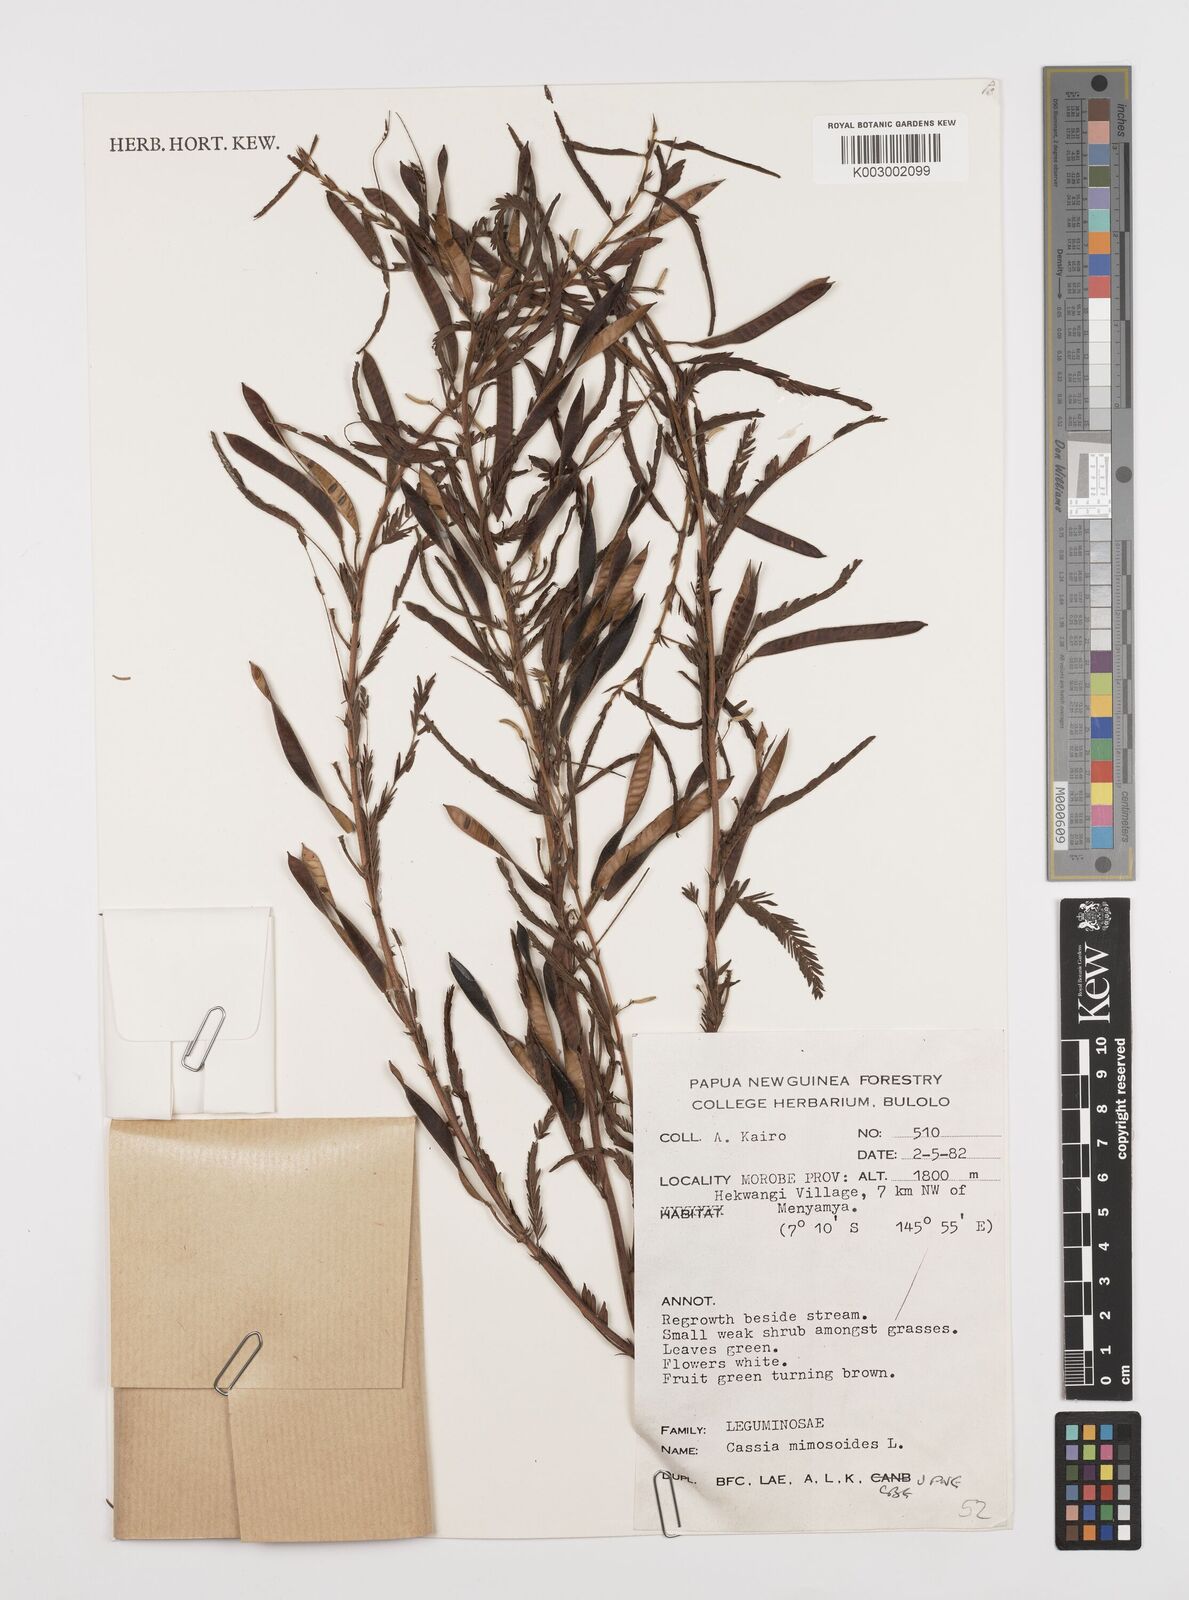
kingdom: Plantae
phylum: Tracheophyta
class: Magnoliopsida
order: Fabales
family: Fabaceae
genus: Chamaecrista
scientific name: Chamaecrista mimosoides
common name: Fish-bone cassia
